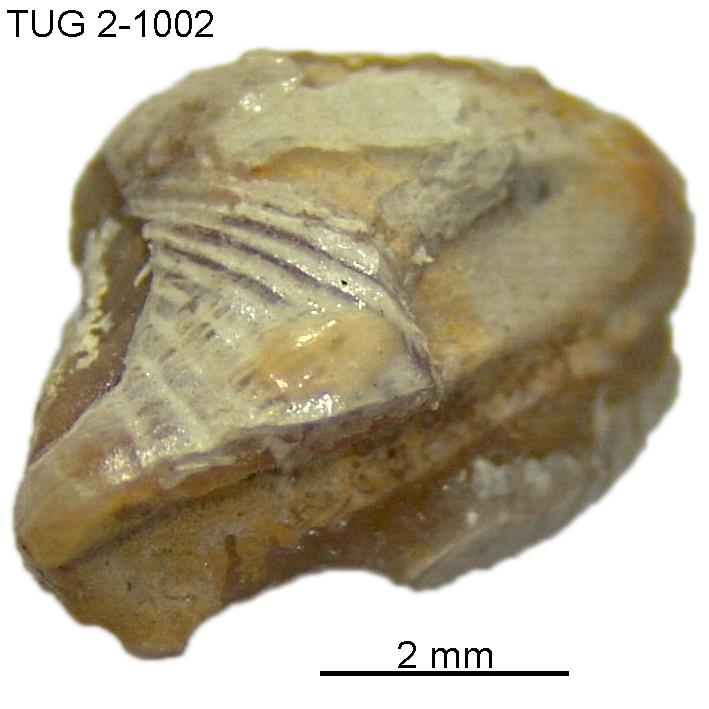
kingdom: Animalia
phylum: Mollusca
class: Rostroconchia
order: Conocardiida
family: Bransoniidae
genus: Mulceodens
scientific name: Mulceodens jaanussoni
